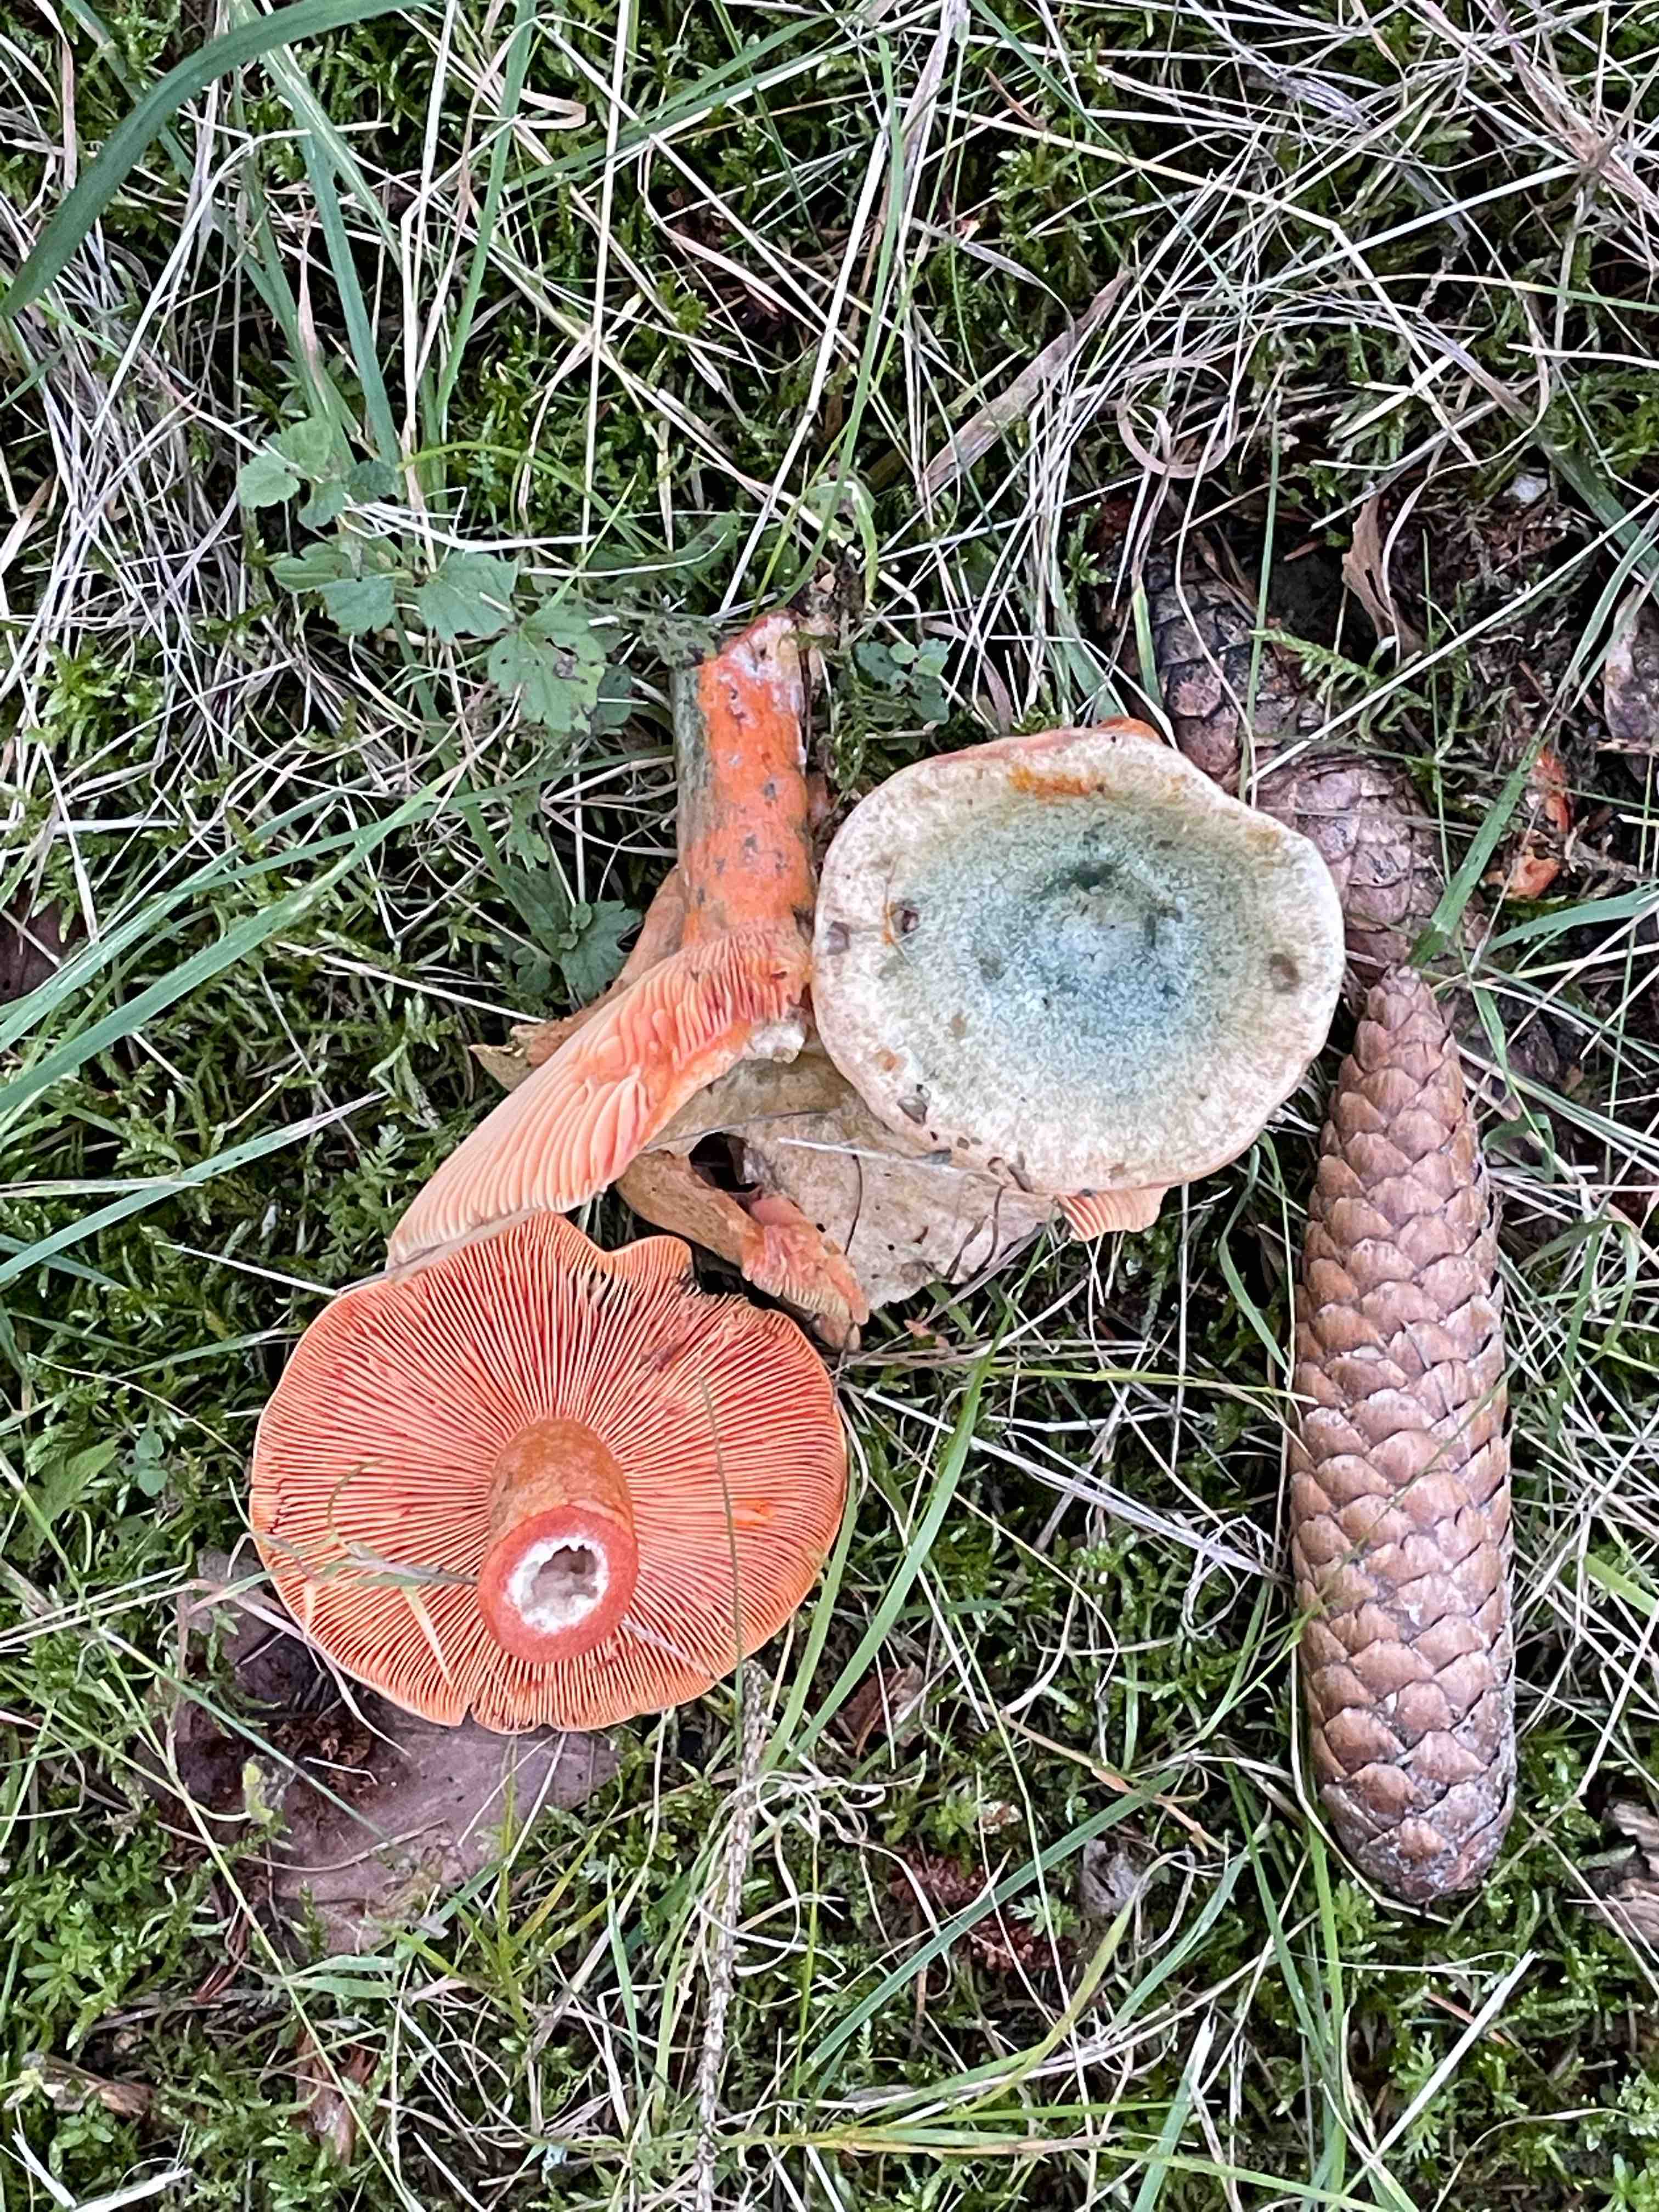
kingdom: Fungi
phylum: Basidiomycota
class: Agaricomycetes
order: Russulales
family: Russulaceae
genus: Lactarius
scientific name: Lactarius deterrimus
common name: gran-mælkehat
